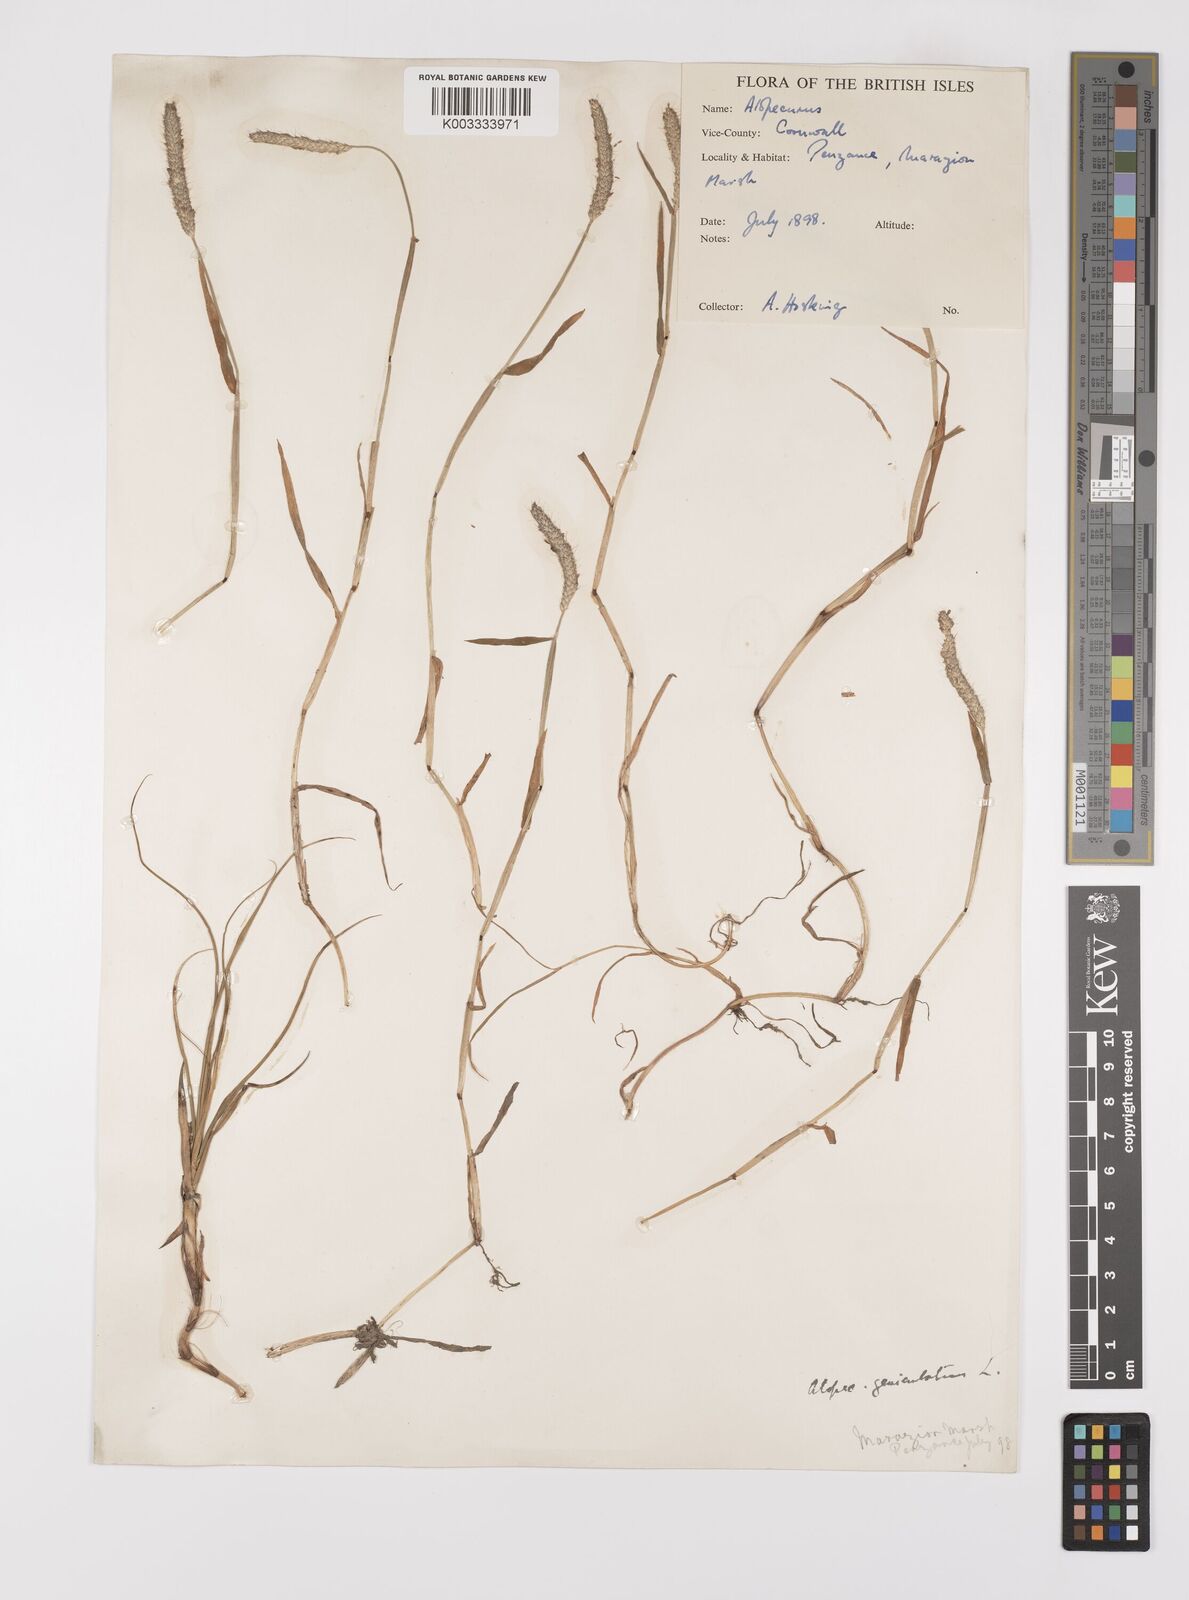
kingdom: Plantae
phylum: Tracheophyta
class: Liliopsida
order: Poales
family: Poaceae
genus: Alopecurus
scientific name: Alopecurus geniculatus
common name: Water foxtail
